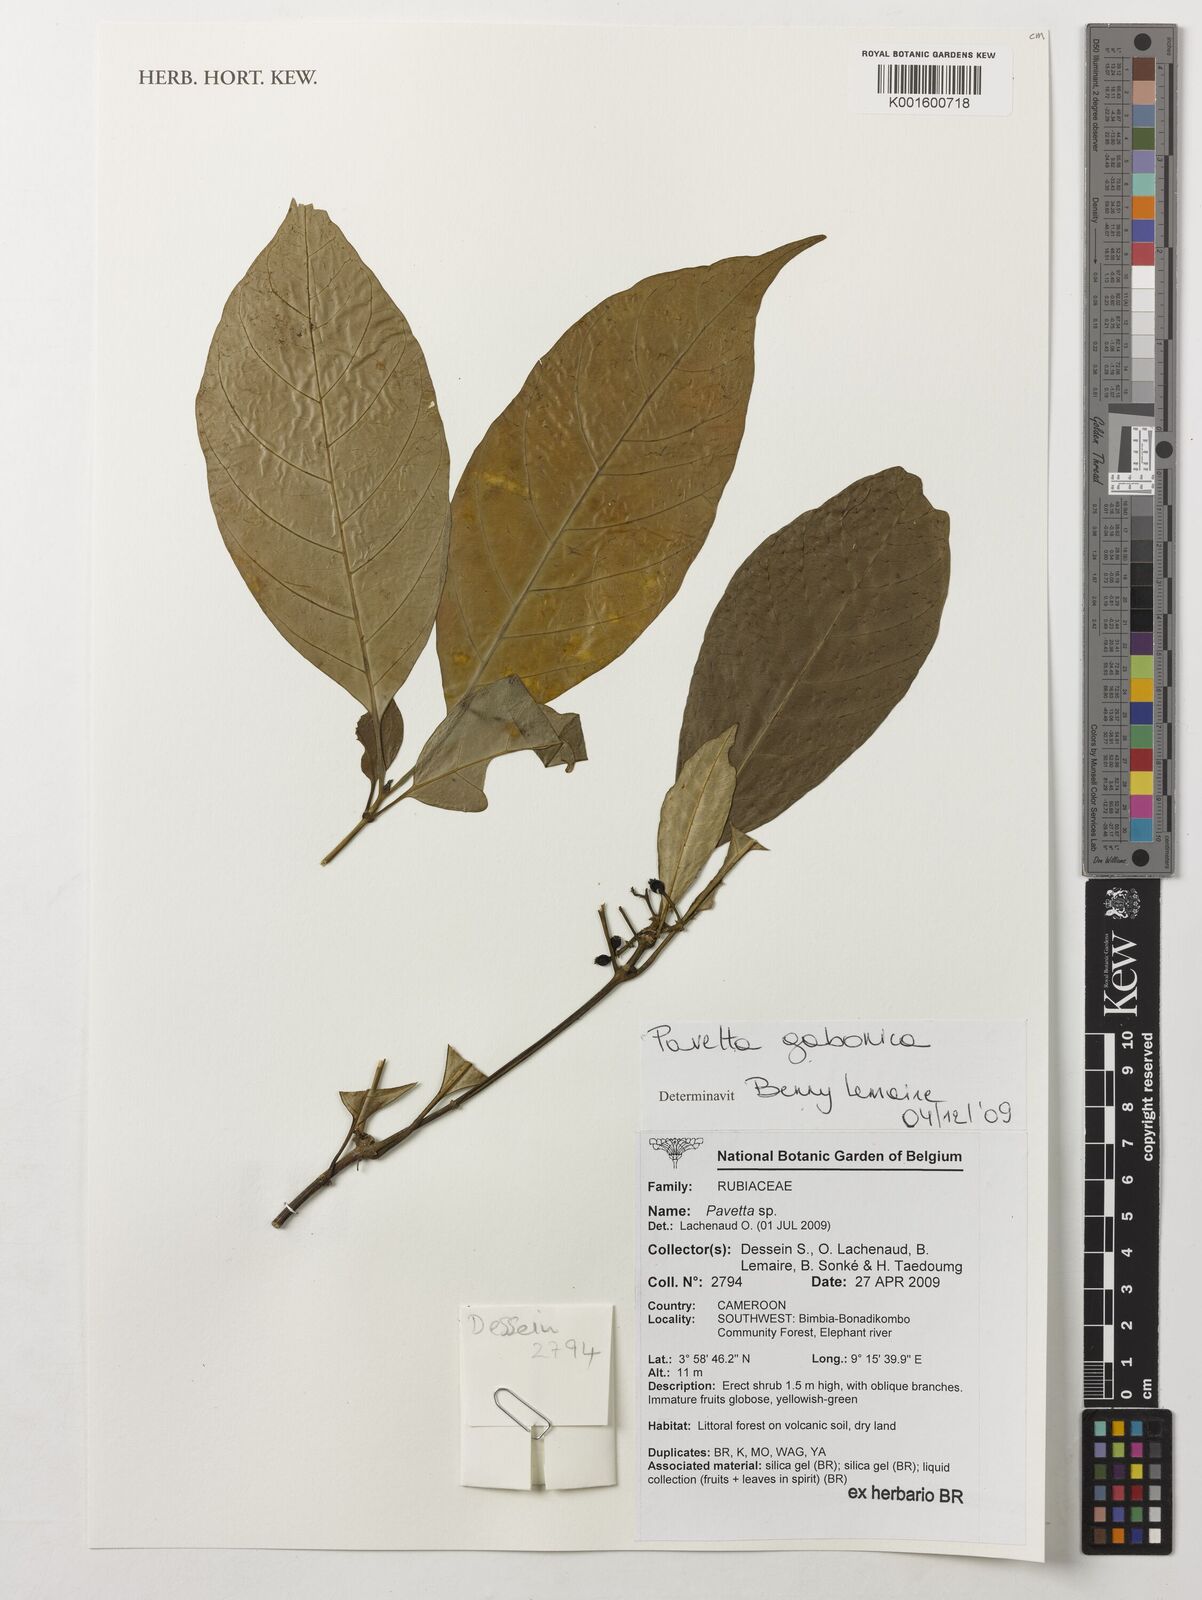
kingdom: Plantae
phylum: Tracheophyta
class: Magnoliopsida
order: Gentianales
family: Rubiaceae
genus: Pavetta
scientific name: Pavetta gabonica
